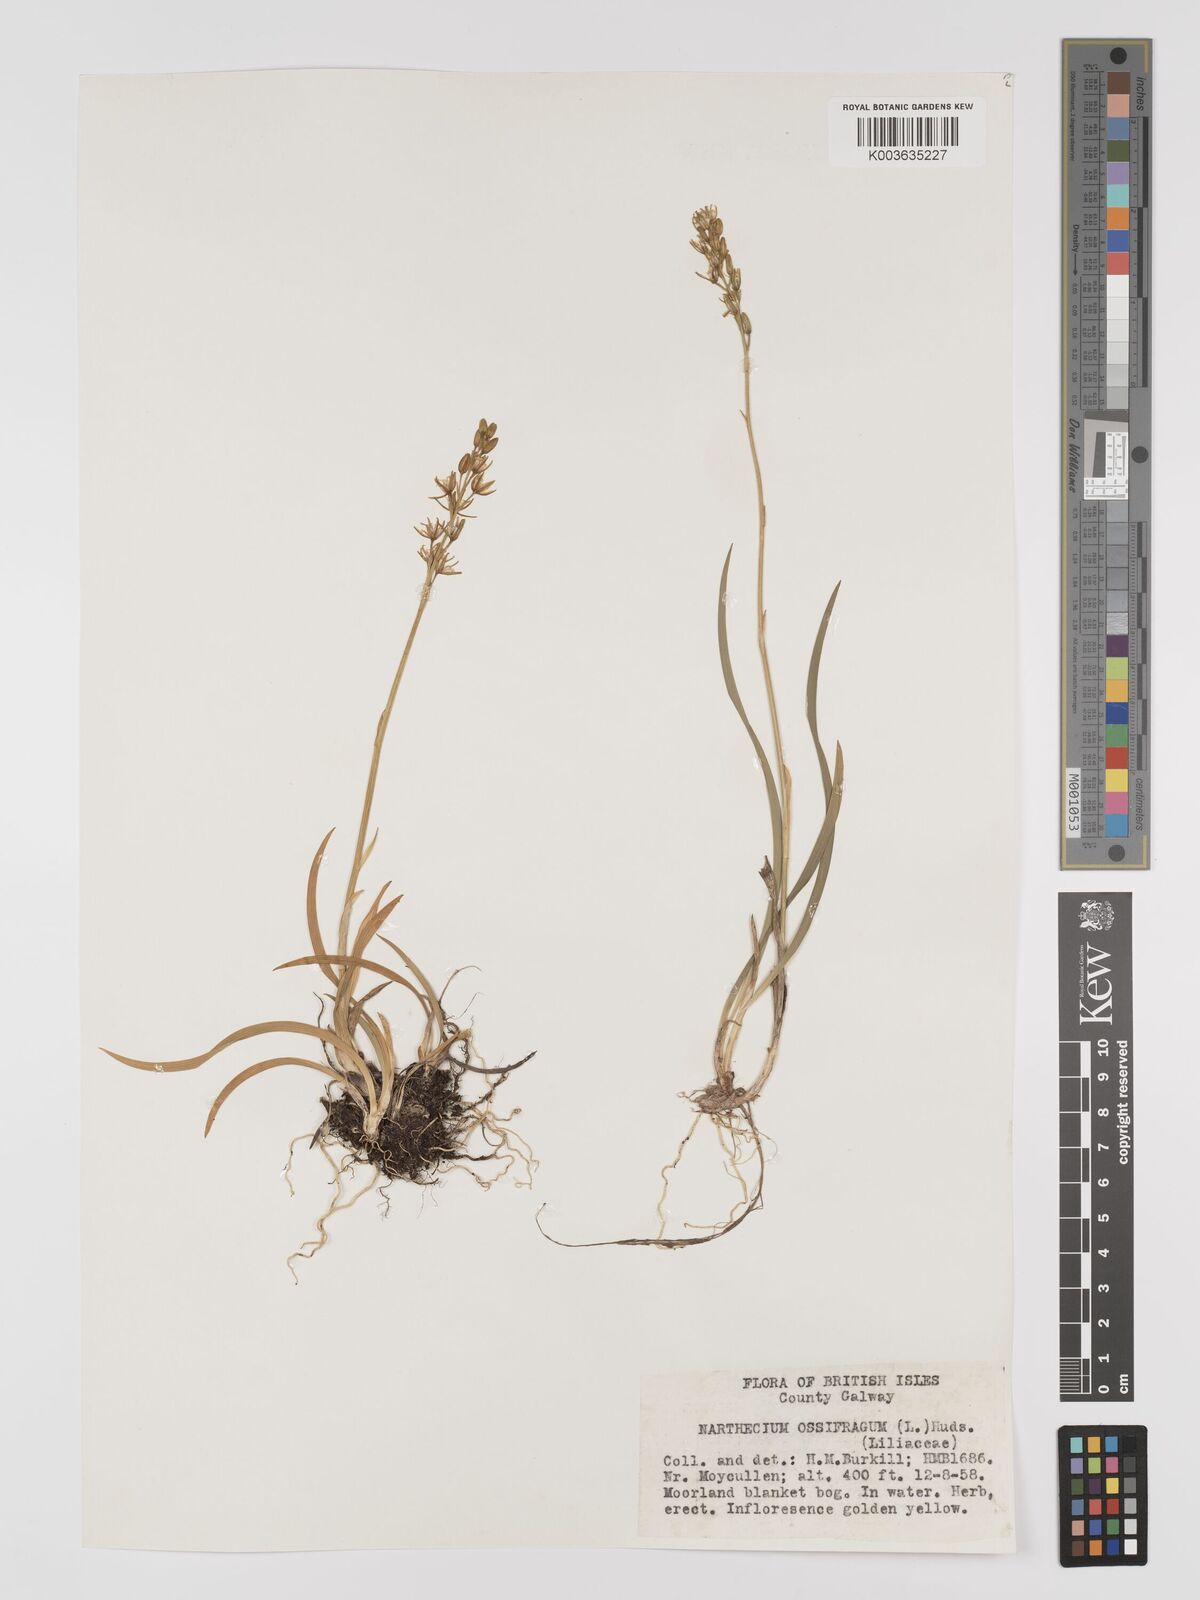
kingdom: Plantae
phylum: Tracheophyta
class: Liliopsida
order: Dioscoreales
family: Nartheciaceae
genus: Narthecium
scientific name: Narthecium ossifragum
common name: Bog asphodel
